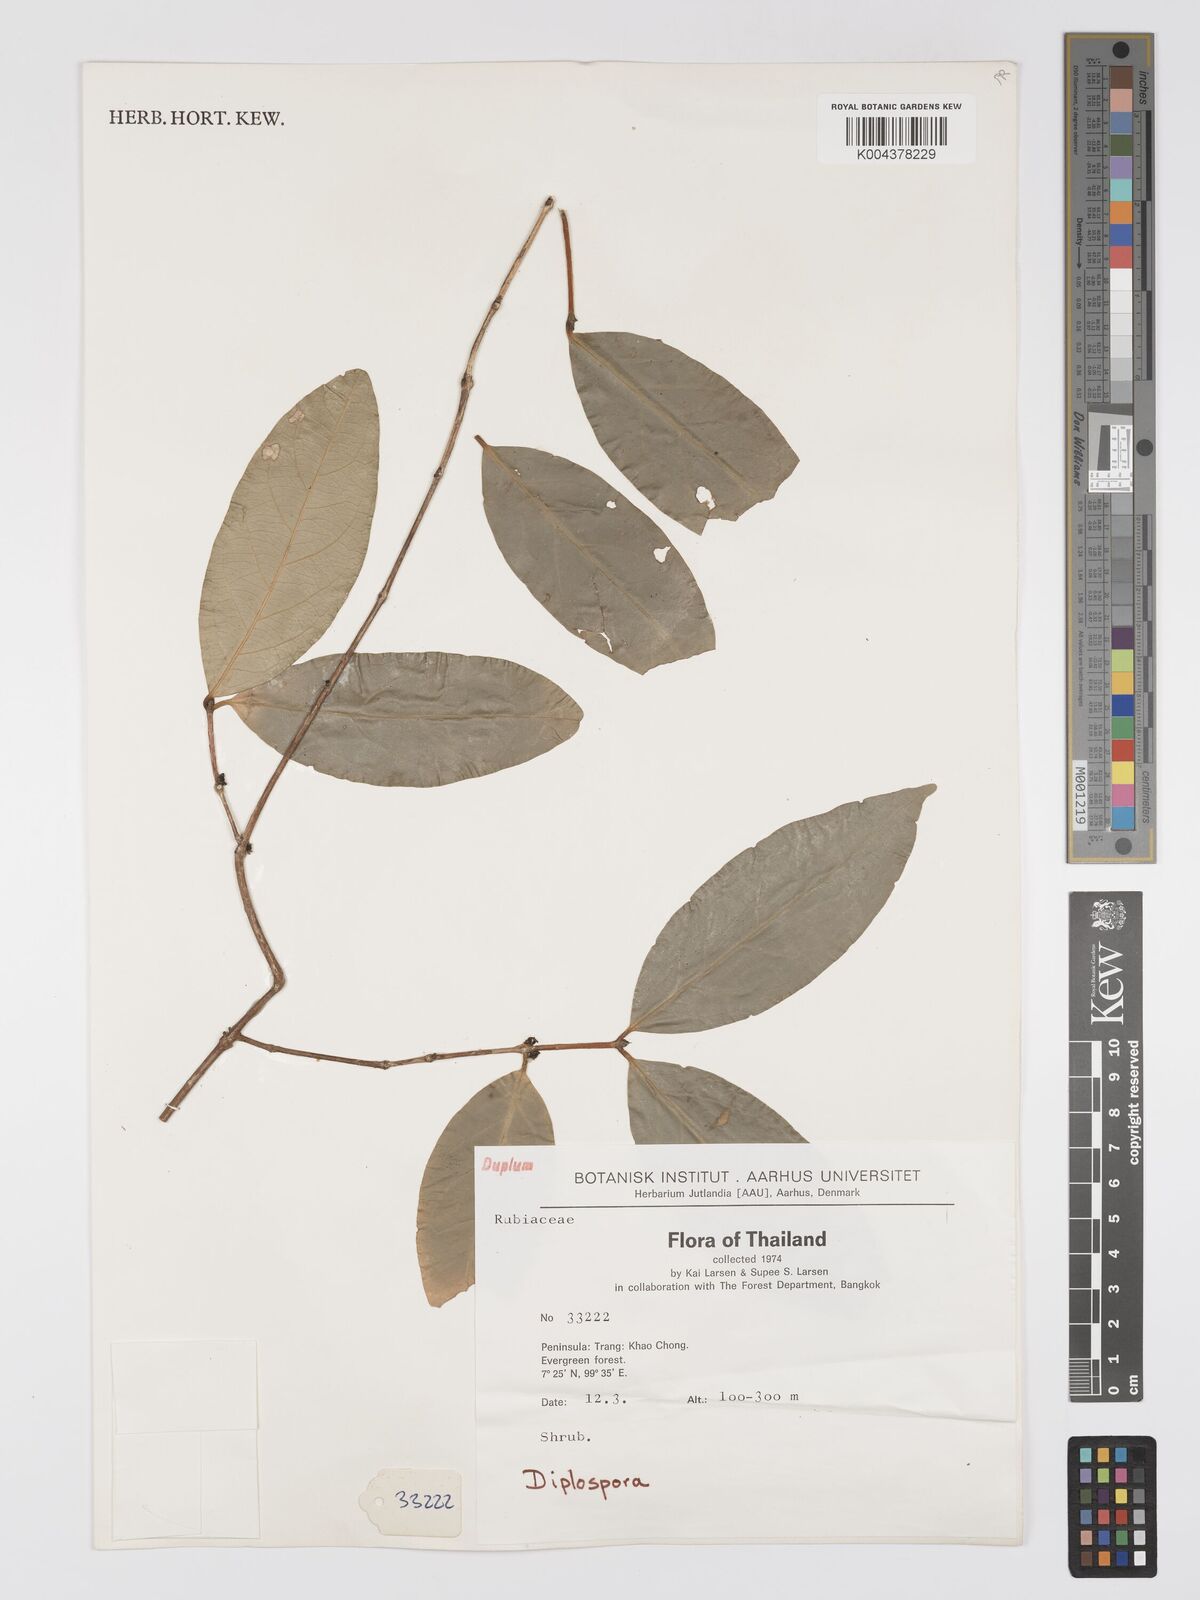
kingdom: Plantae
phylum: Tracheophyta
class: Magnoliopsida
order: Gentianales
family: Rubiaceae
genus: Diplospora
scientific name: Diplospora
